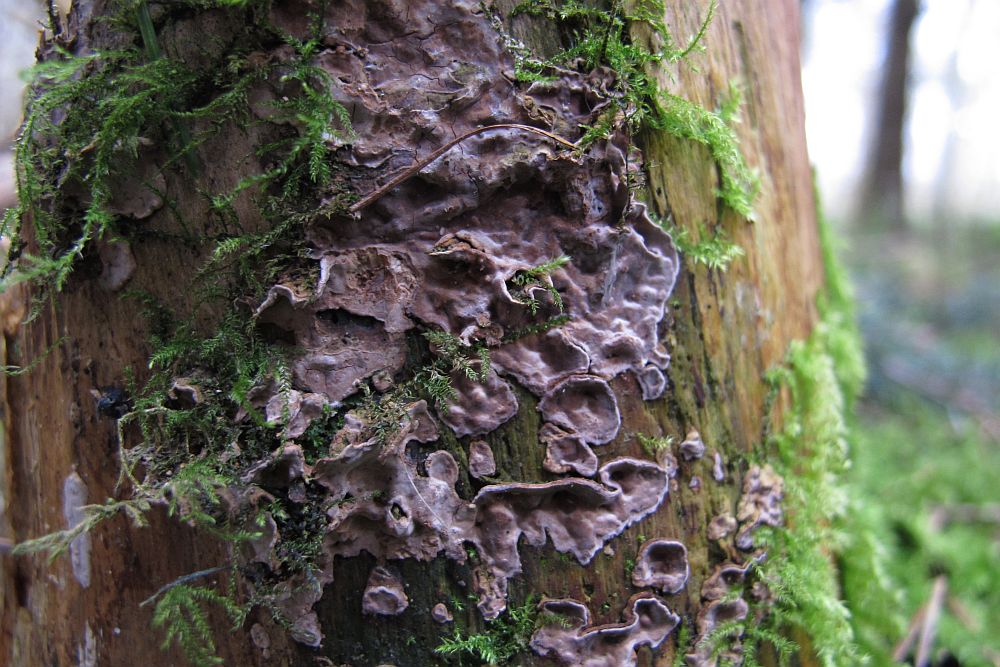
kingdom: Fungi
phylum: Basidiomycota
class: Agaricomycetes
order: Russulales
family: Echinodontiaceae
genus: Amylostereum
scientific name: Amylostereum chailletii
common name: gran-lædersvamp
